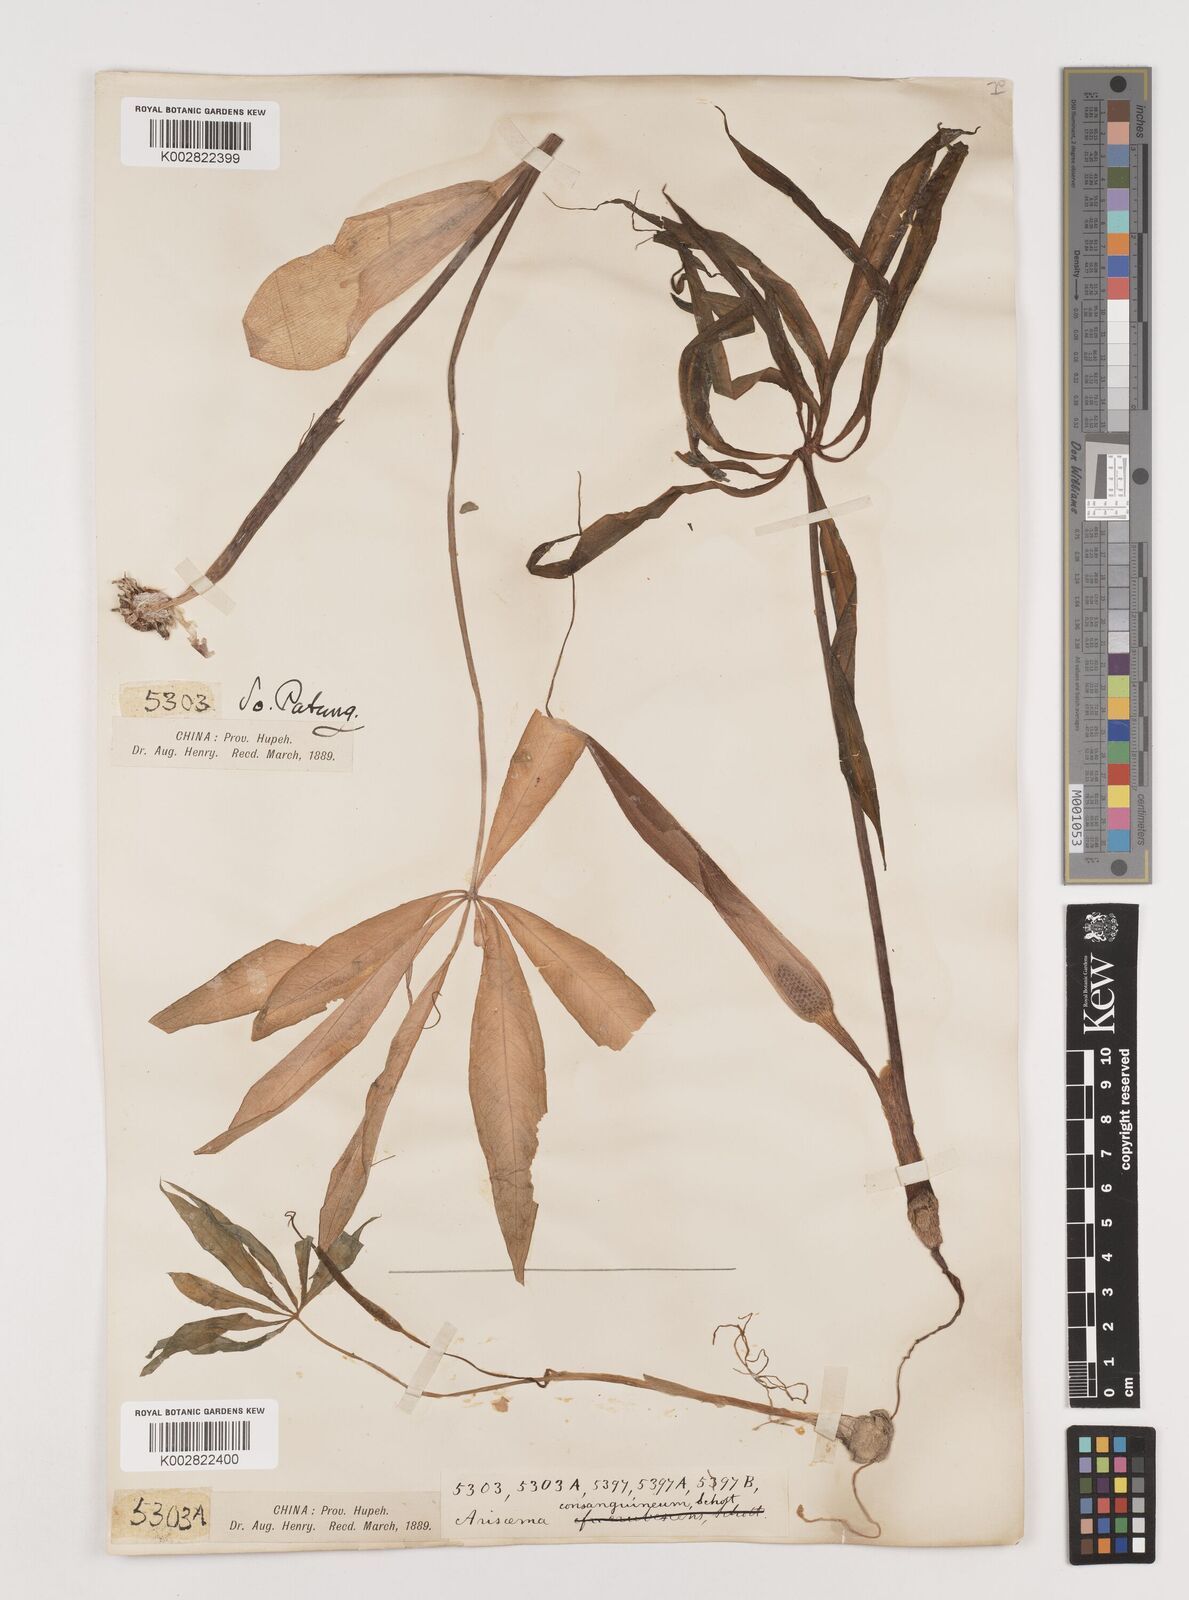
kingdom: Plantae
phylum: Tracheophyta
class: Liliopsida
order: Alismatales
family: Araceae
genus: Arisaema
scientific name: Arisaema erubescens
